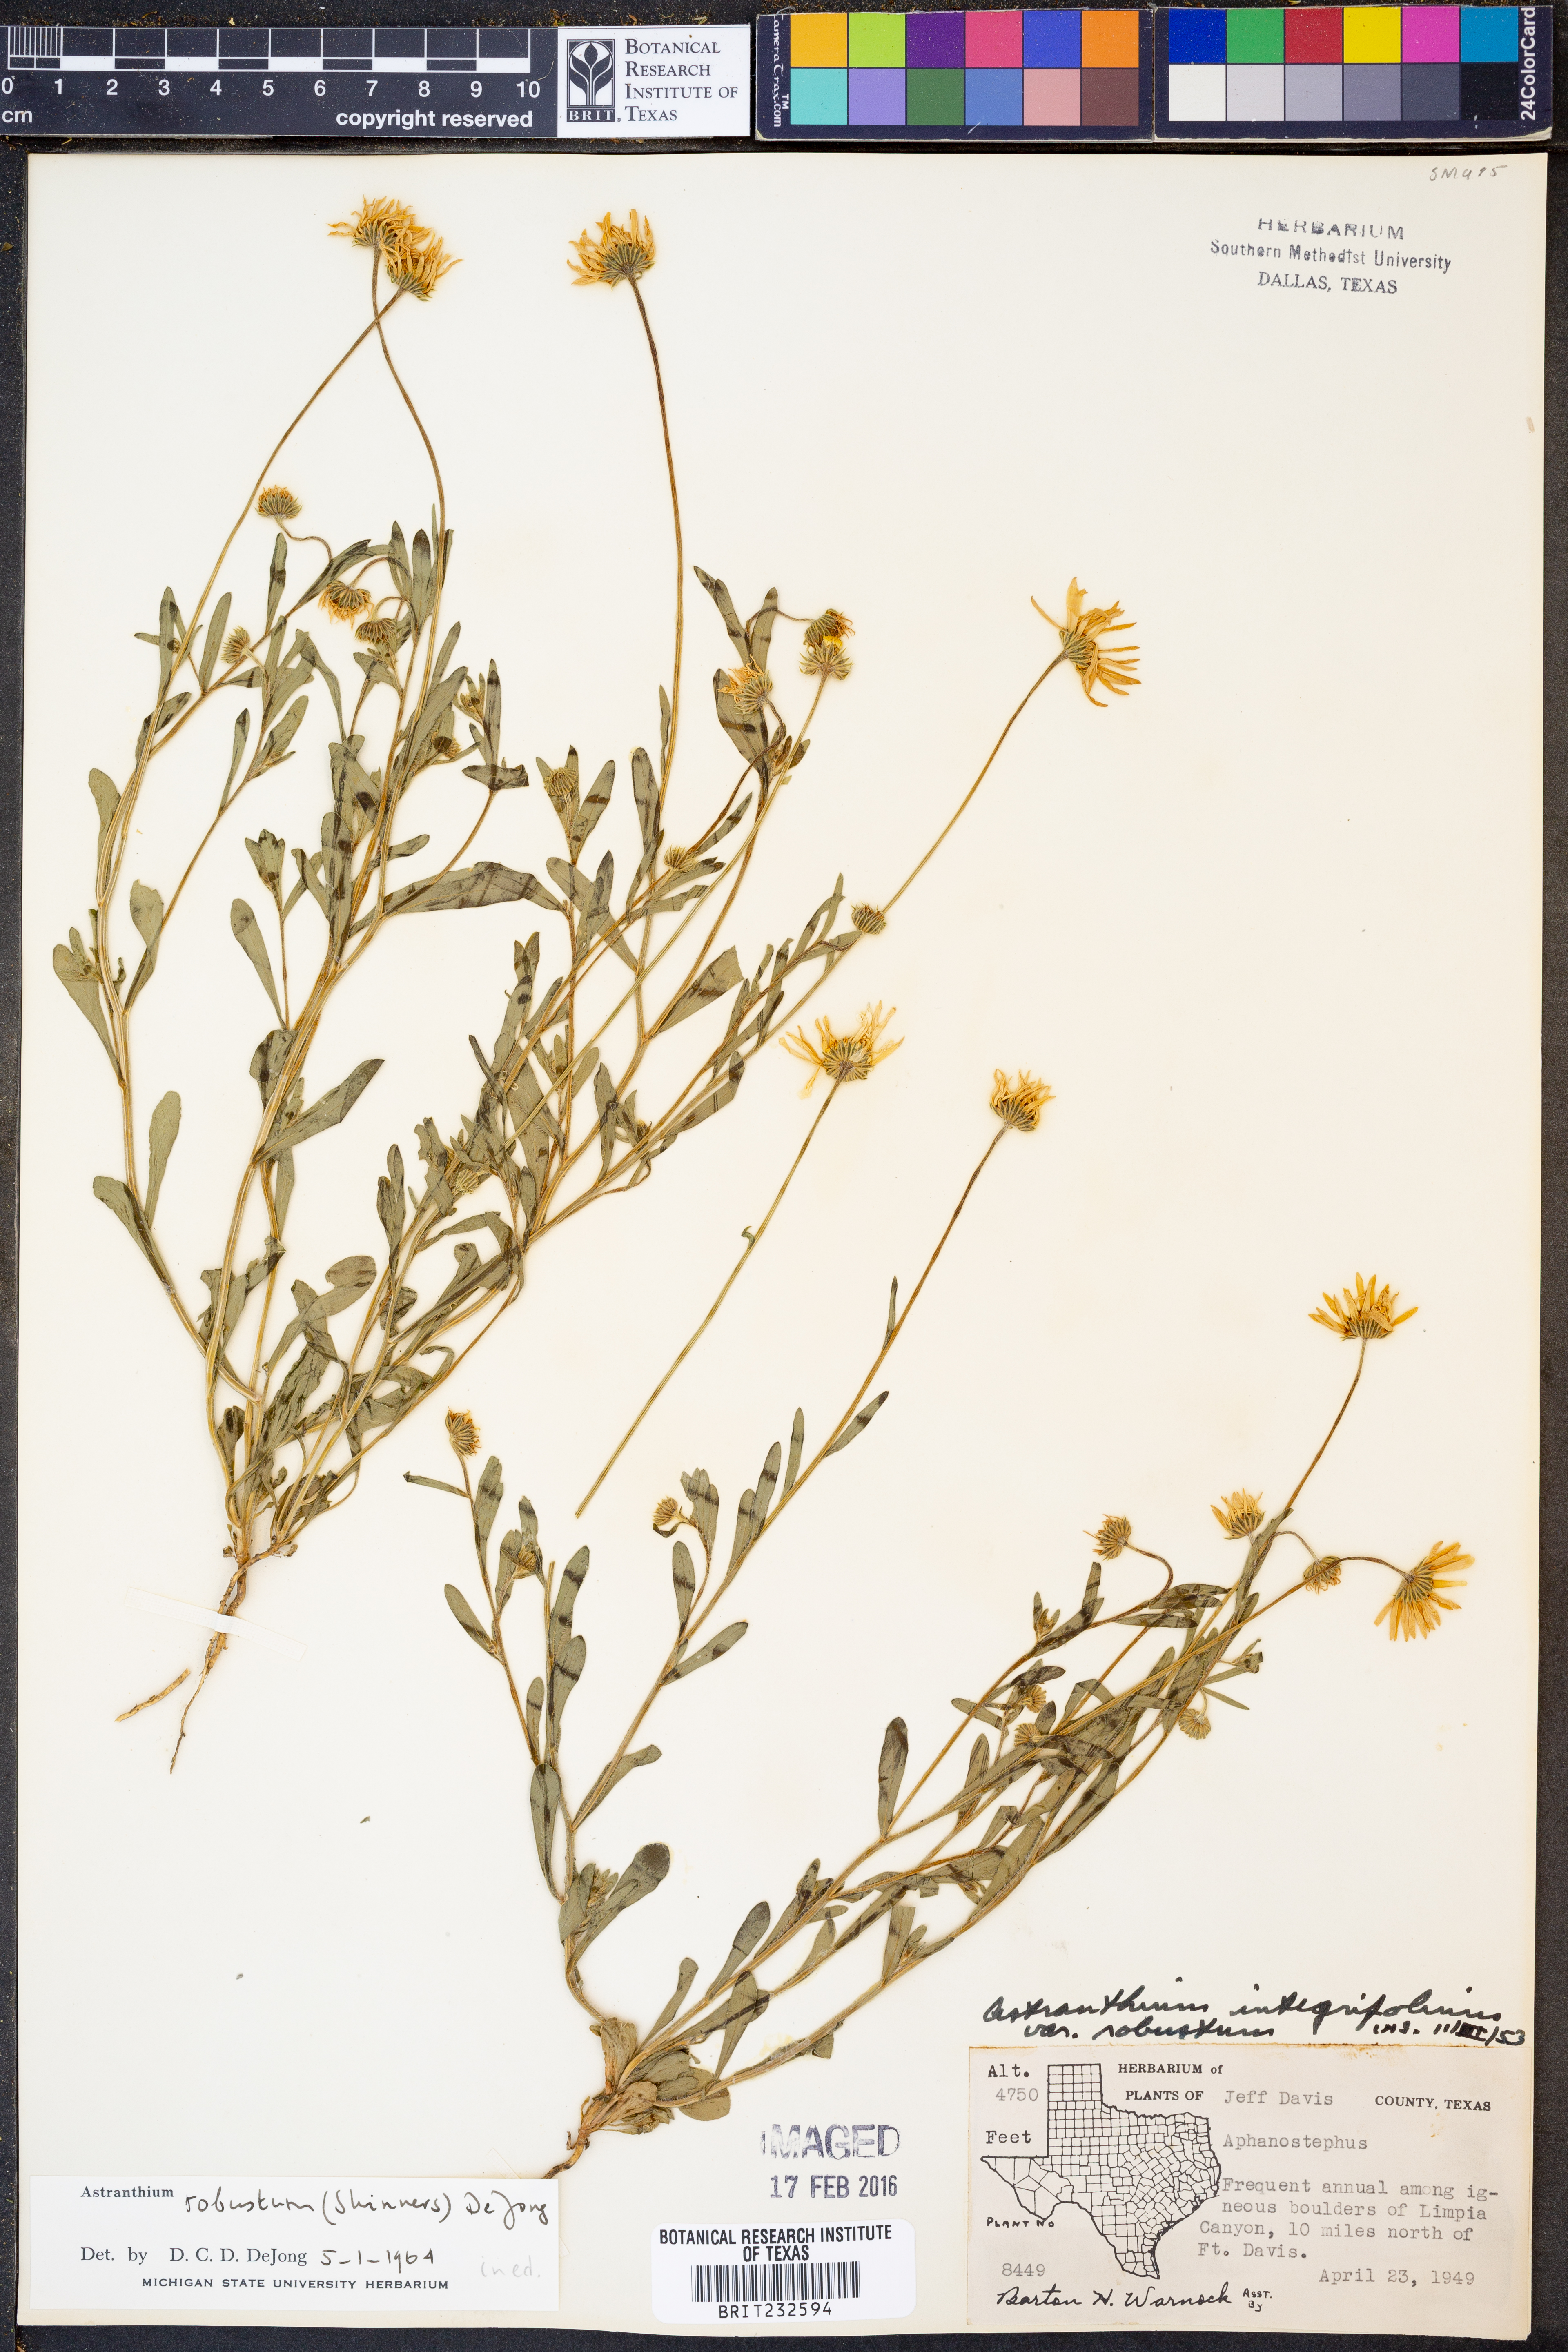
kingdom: Plantae
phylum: Tracheophyta
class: Magnoliopsida
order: Asterales
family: Asteraceae
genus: Astranthium
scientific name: Astranthium robustum
